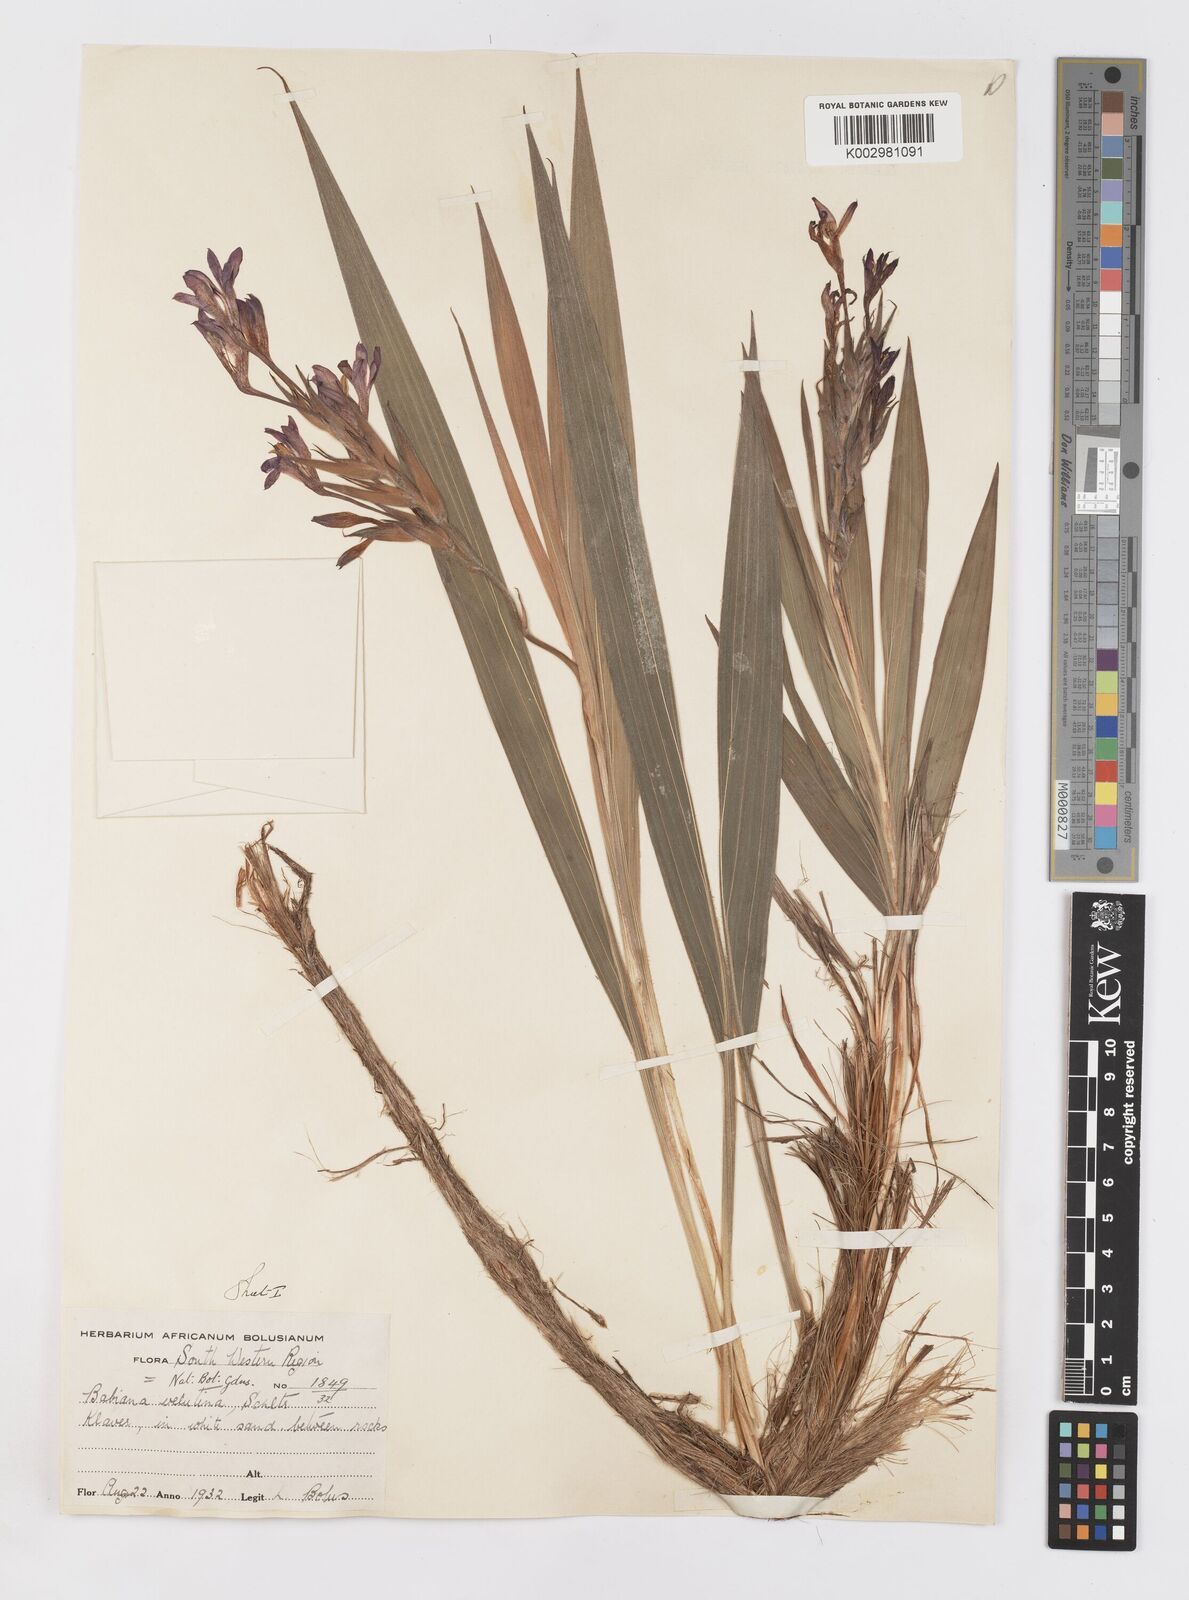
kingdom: Plantae
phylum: Tracheophyta
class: Liliopsida
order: Asparagales
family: Iridaceae
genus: Babiana
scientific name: Babiana ecklonii
